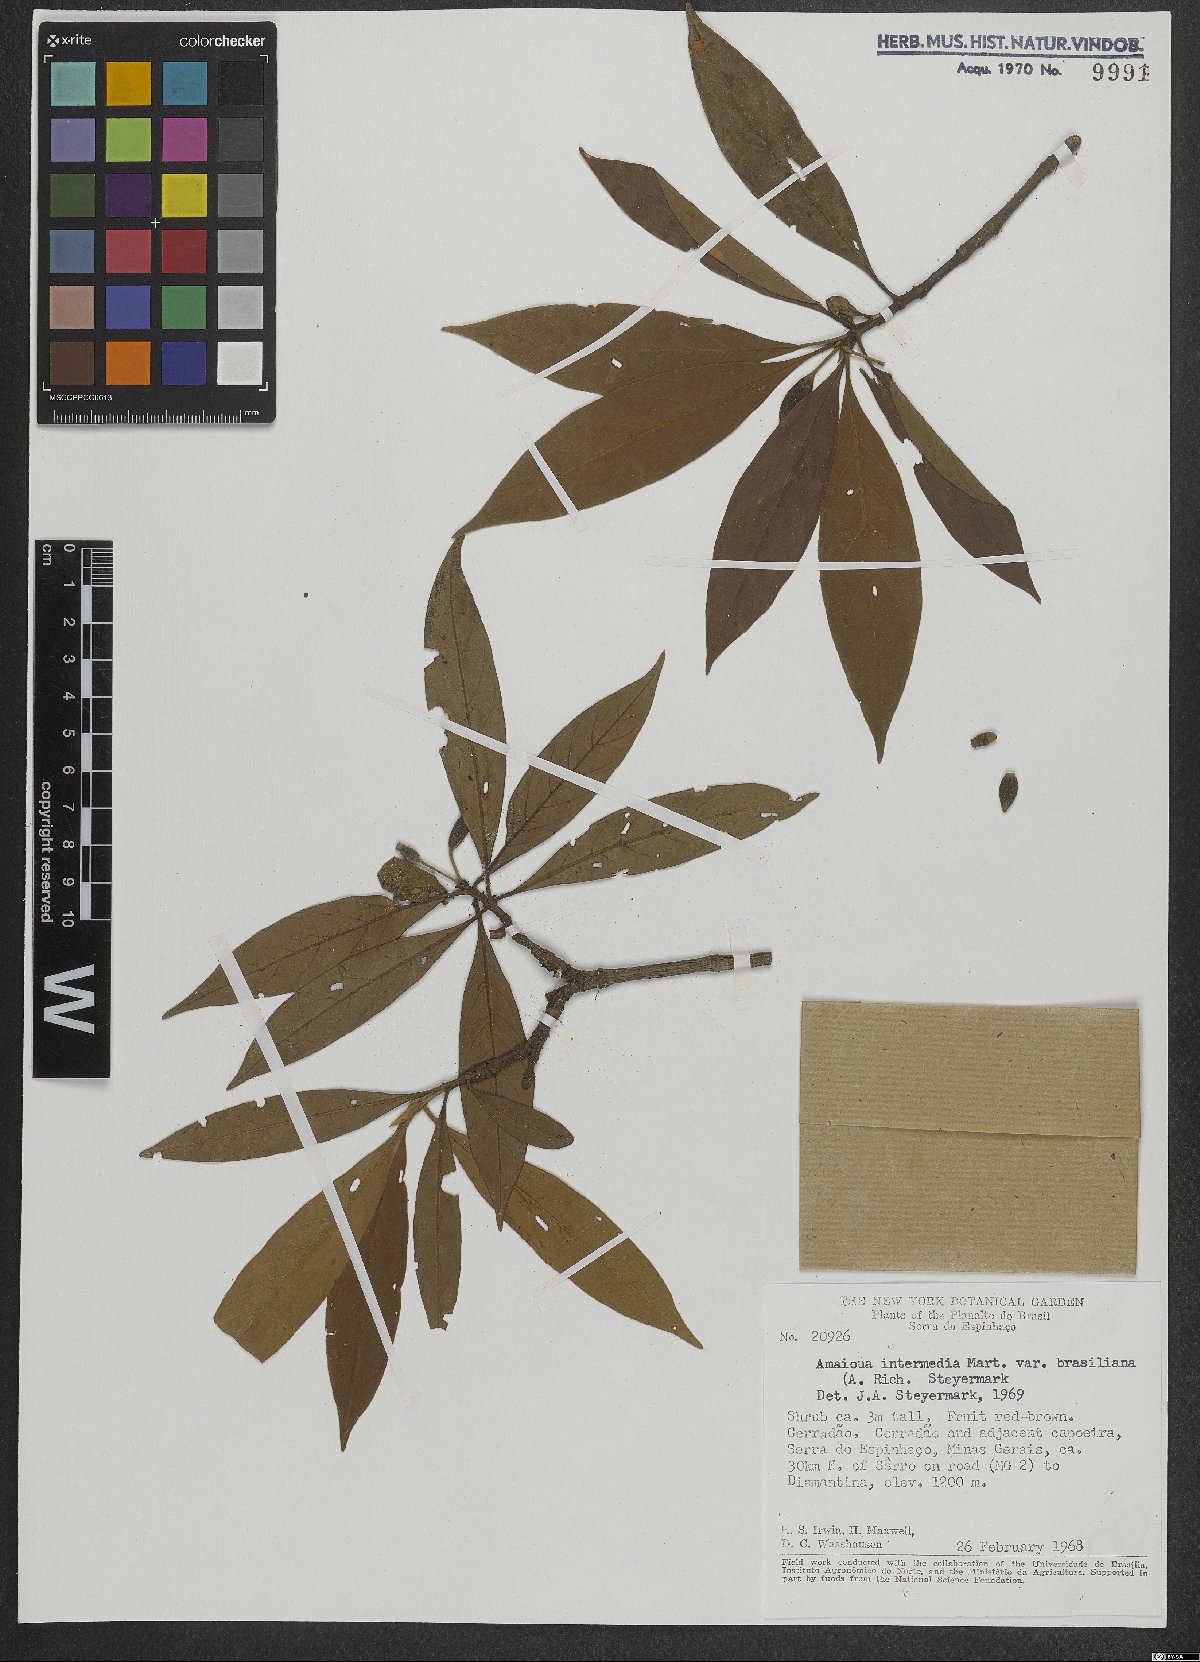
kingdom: Plantae
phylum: Tracheophyta
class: Magnoliopsida
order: Gentianales
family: Rubiaceae
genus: Amaioua
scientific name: Amaioua intermedia
